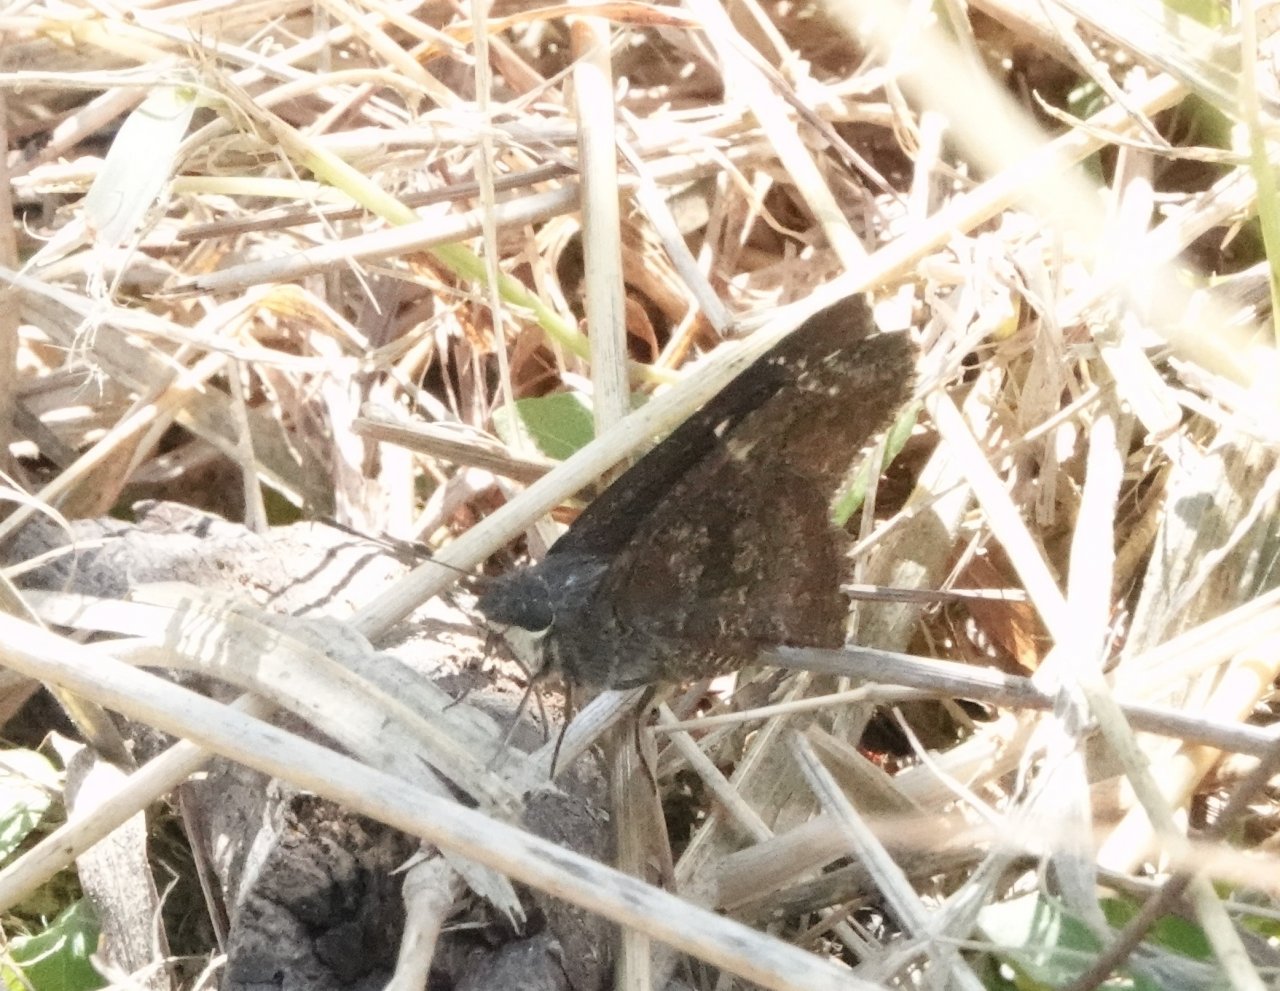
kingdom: Animalia
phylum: Arthropoda
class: Insecta
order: Lepidoptera
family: Hesperiidae
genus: Caicella
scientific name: Caicella calchas
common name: Mimosa Skipper
